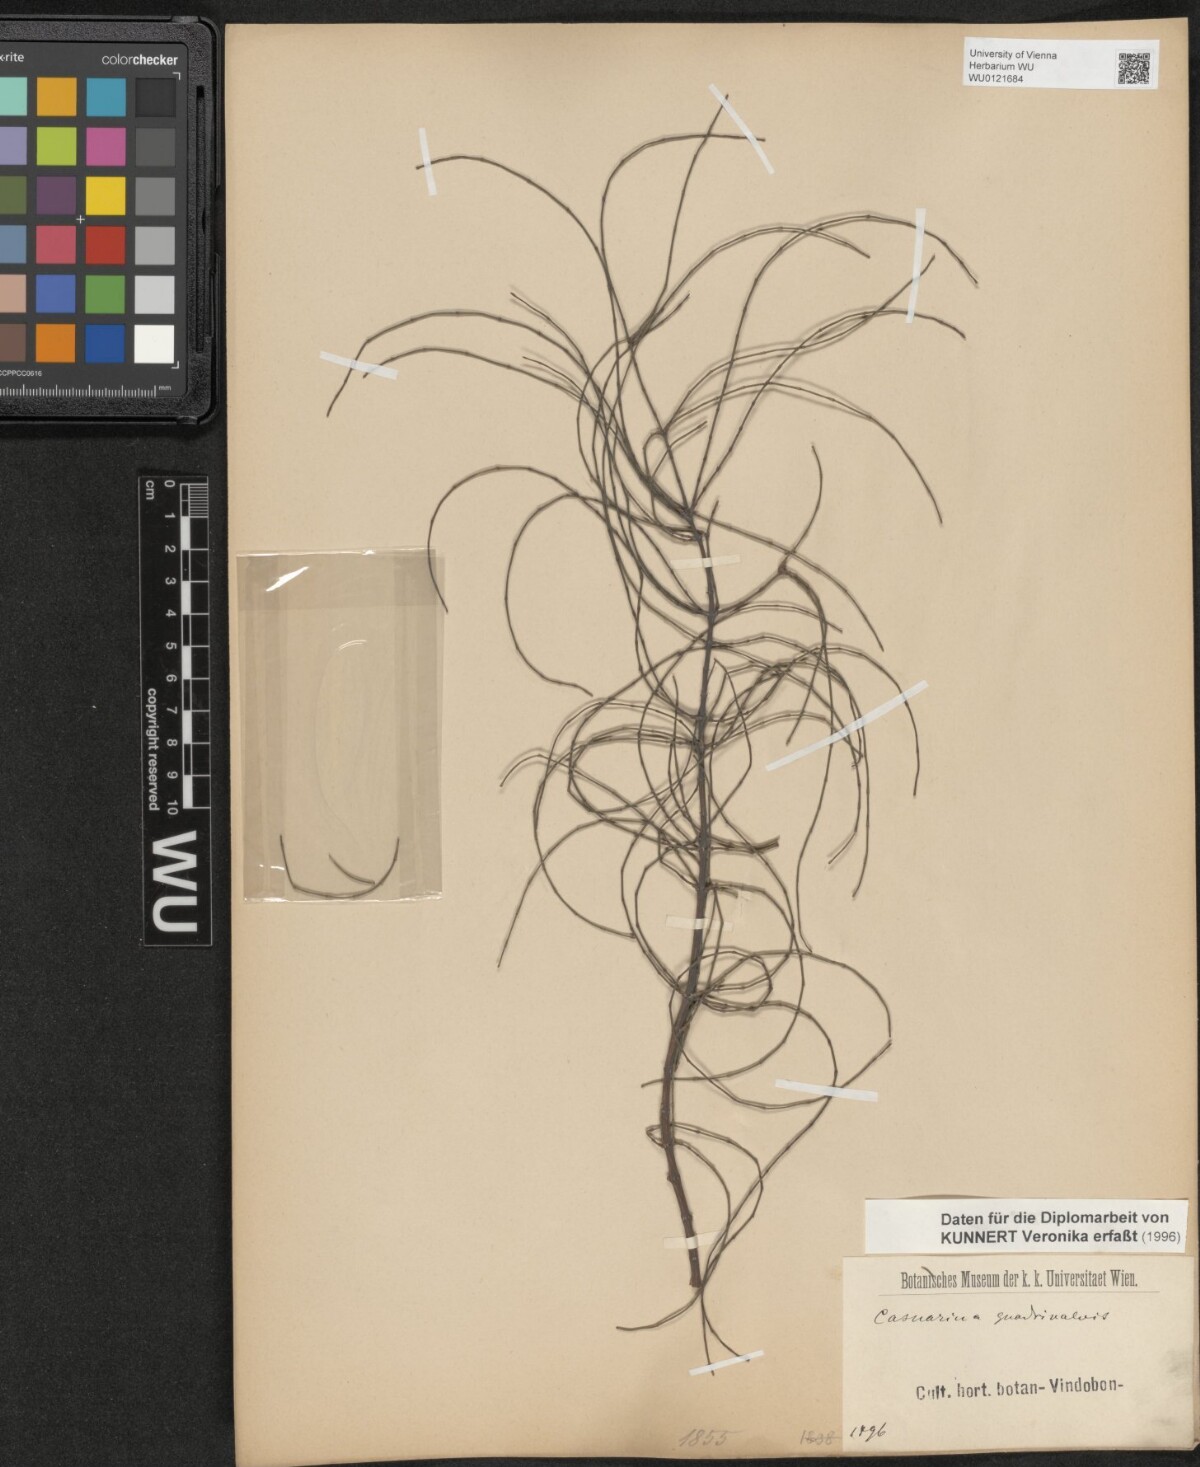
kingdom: Plantae
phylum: Tracheophyta
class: Magnoliopsida
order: Fagales
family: Casuarinaceae
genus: Allocasuarina
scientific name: Allocasuarina verticillata
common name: Drooping she-oak
